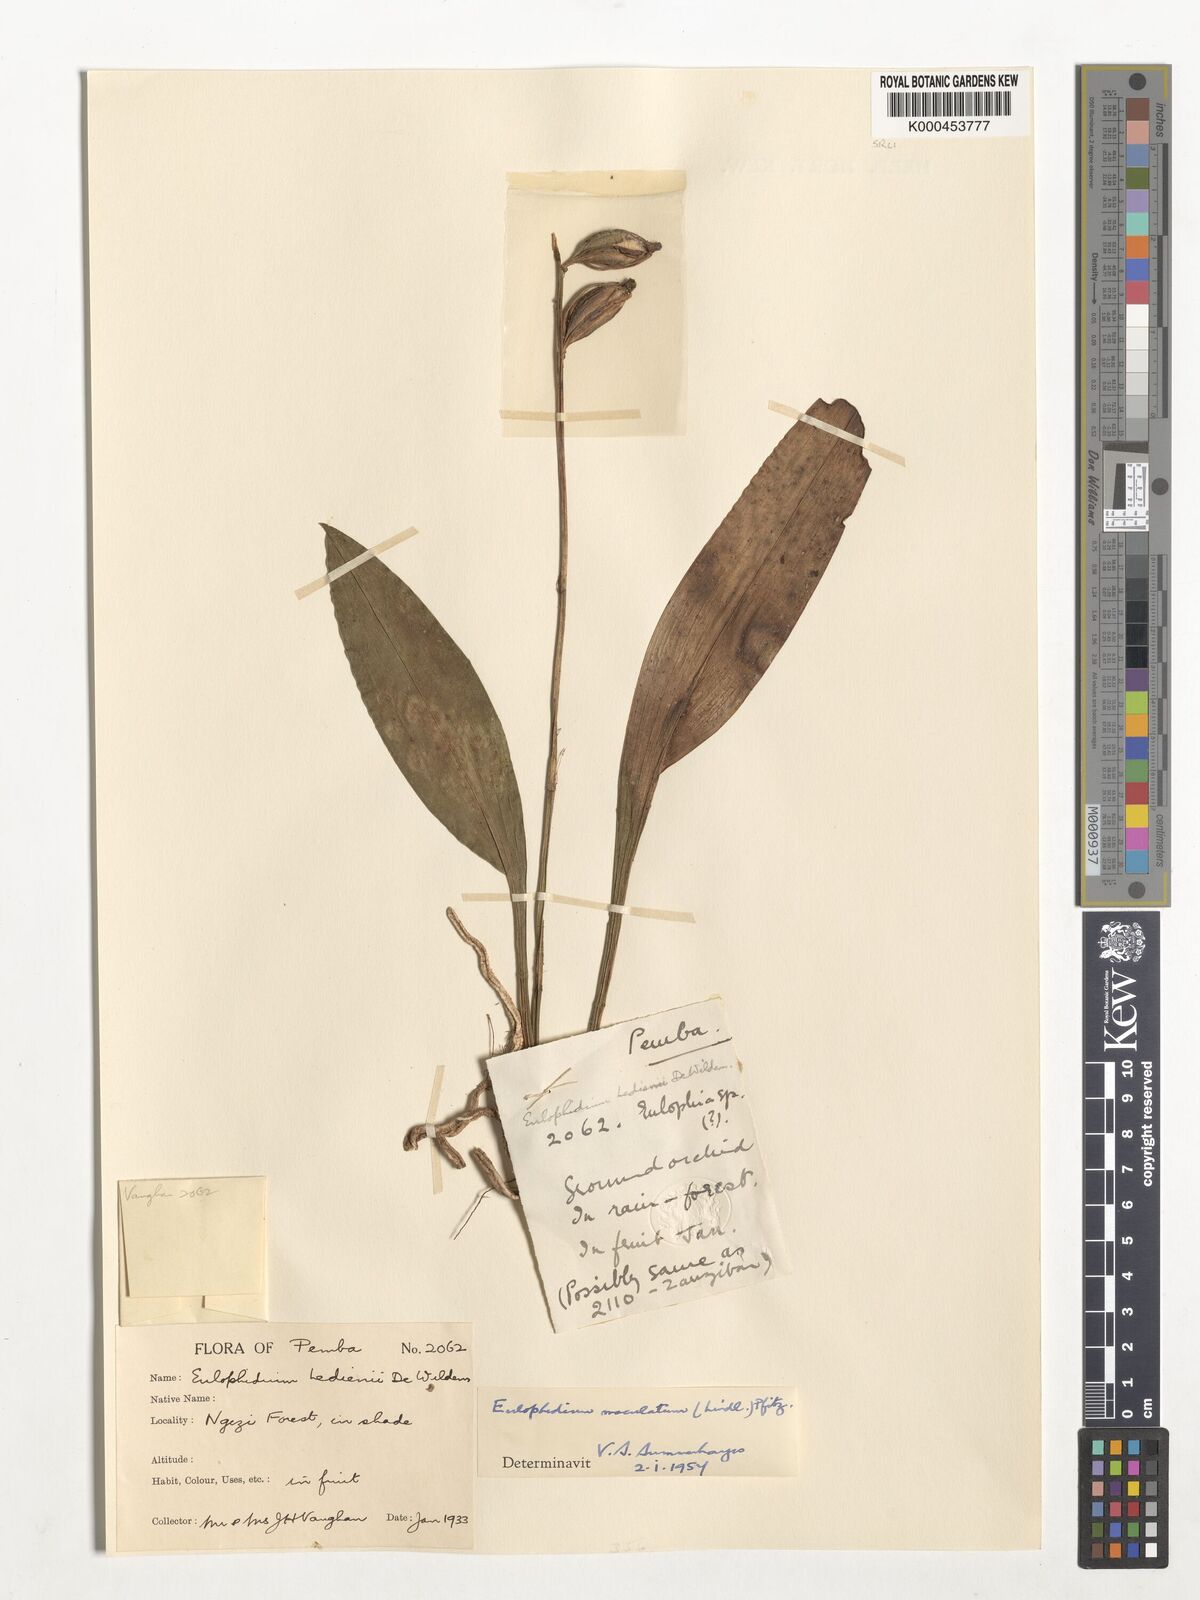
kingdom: Plantae
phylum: Tracheophyta
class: Liliopsida
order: Asparagales
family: Orchidaceae
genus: Eulophia
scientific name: Eulophia maculata
